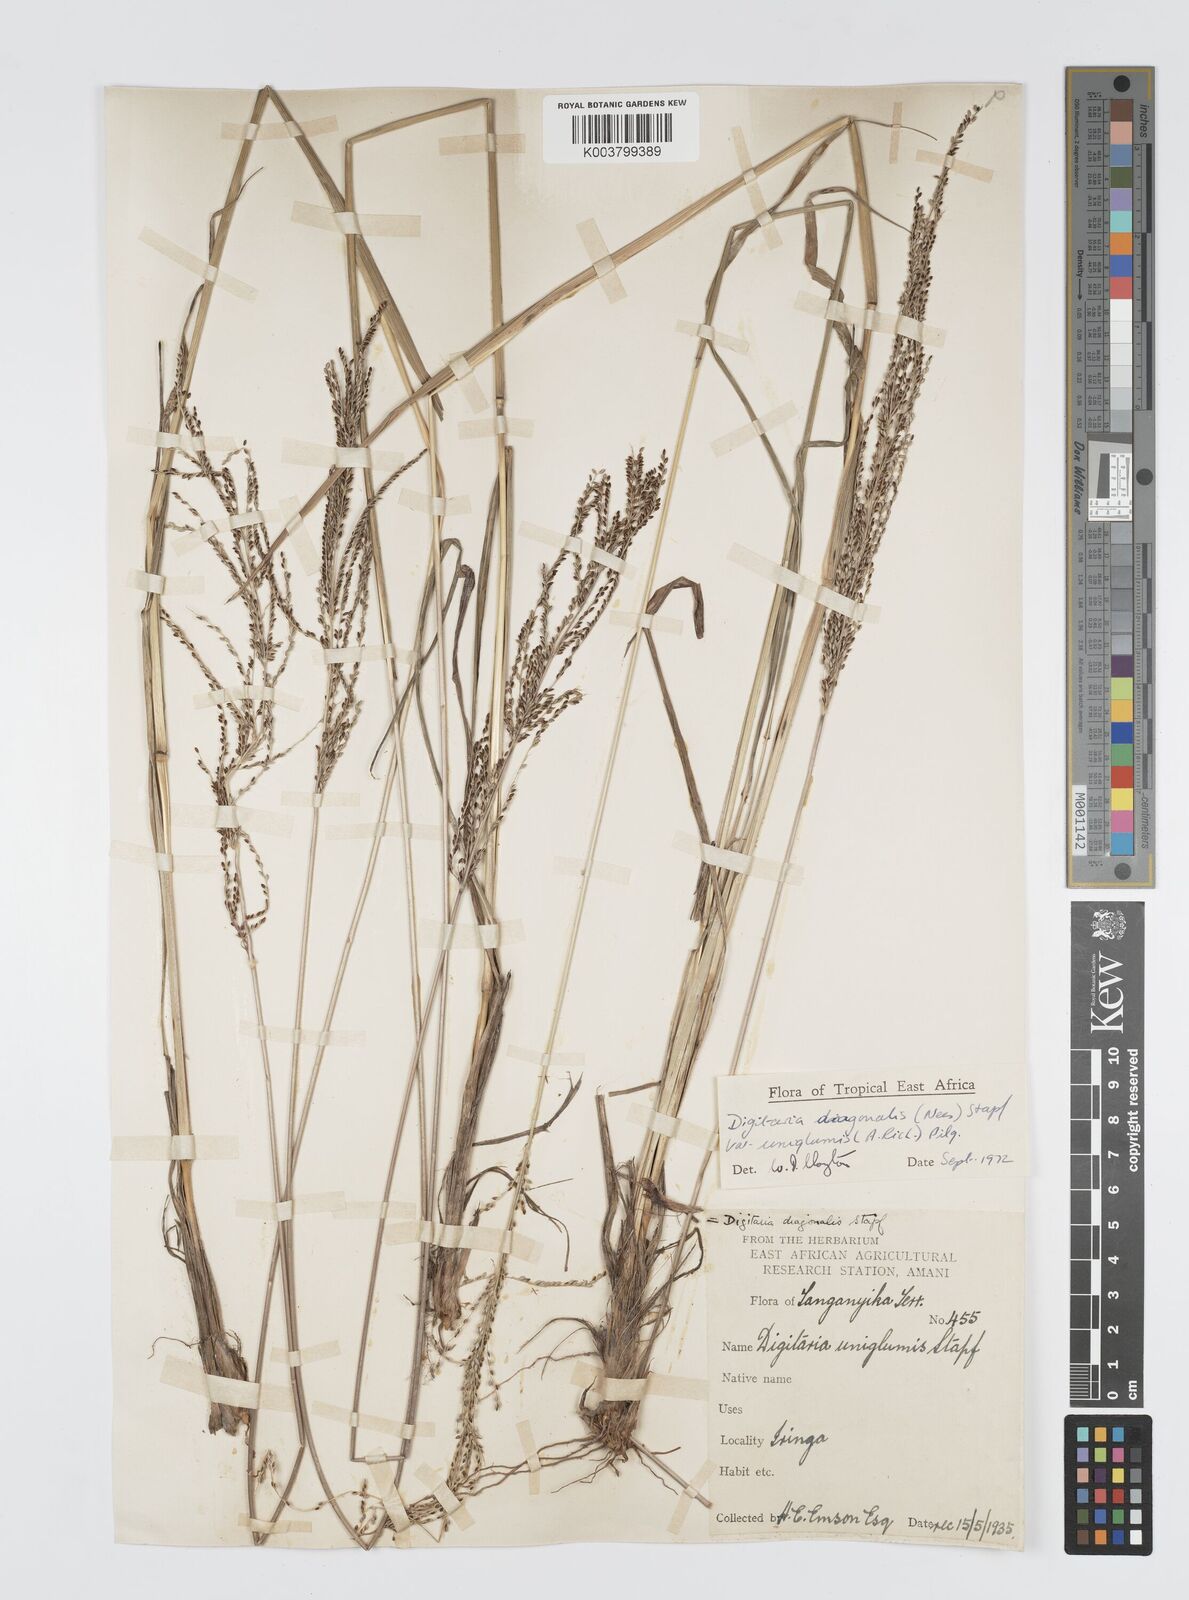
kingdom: Plantae
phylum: Tracheophyta
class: Liliopsida
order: Poales
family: Poaceae
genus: Digitaria
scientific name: Digitaria diagonalis
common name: Brown-seed finger grass
